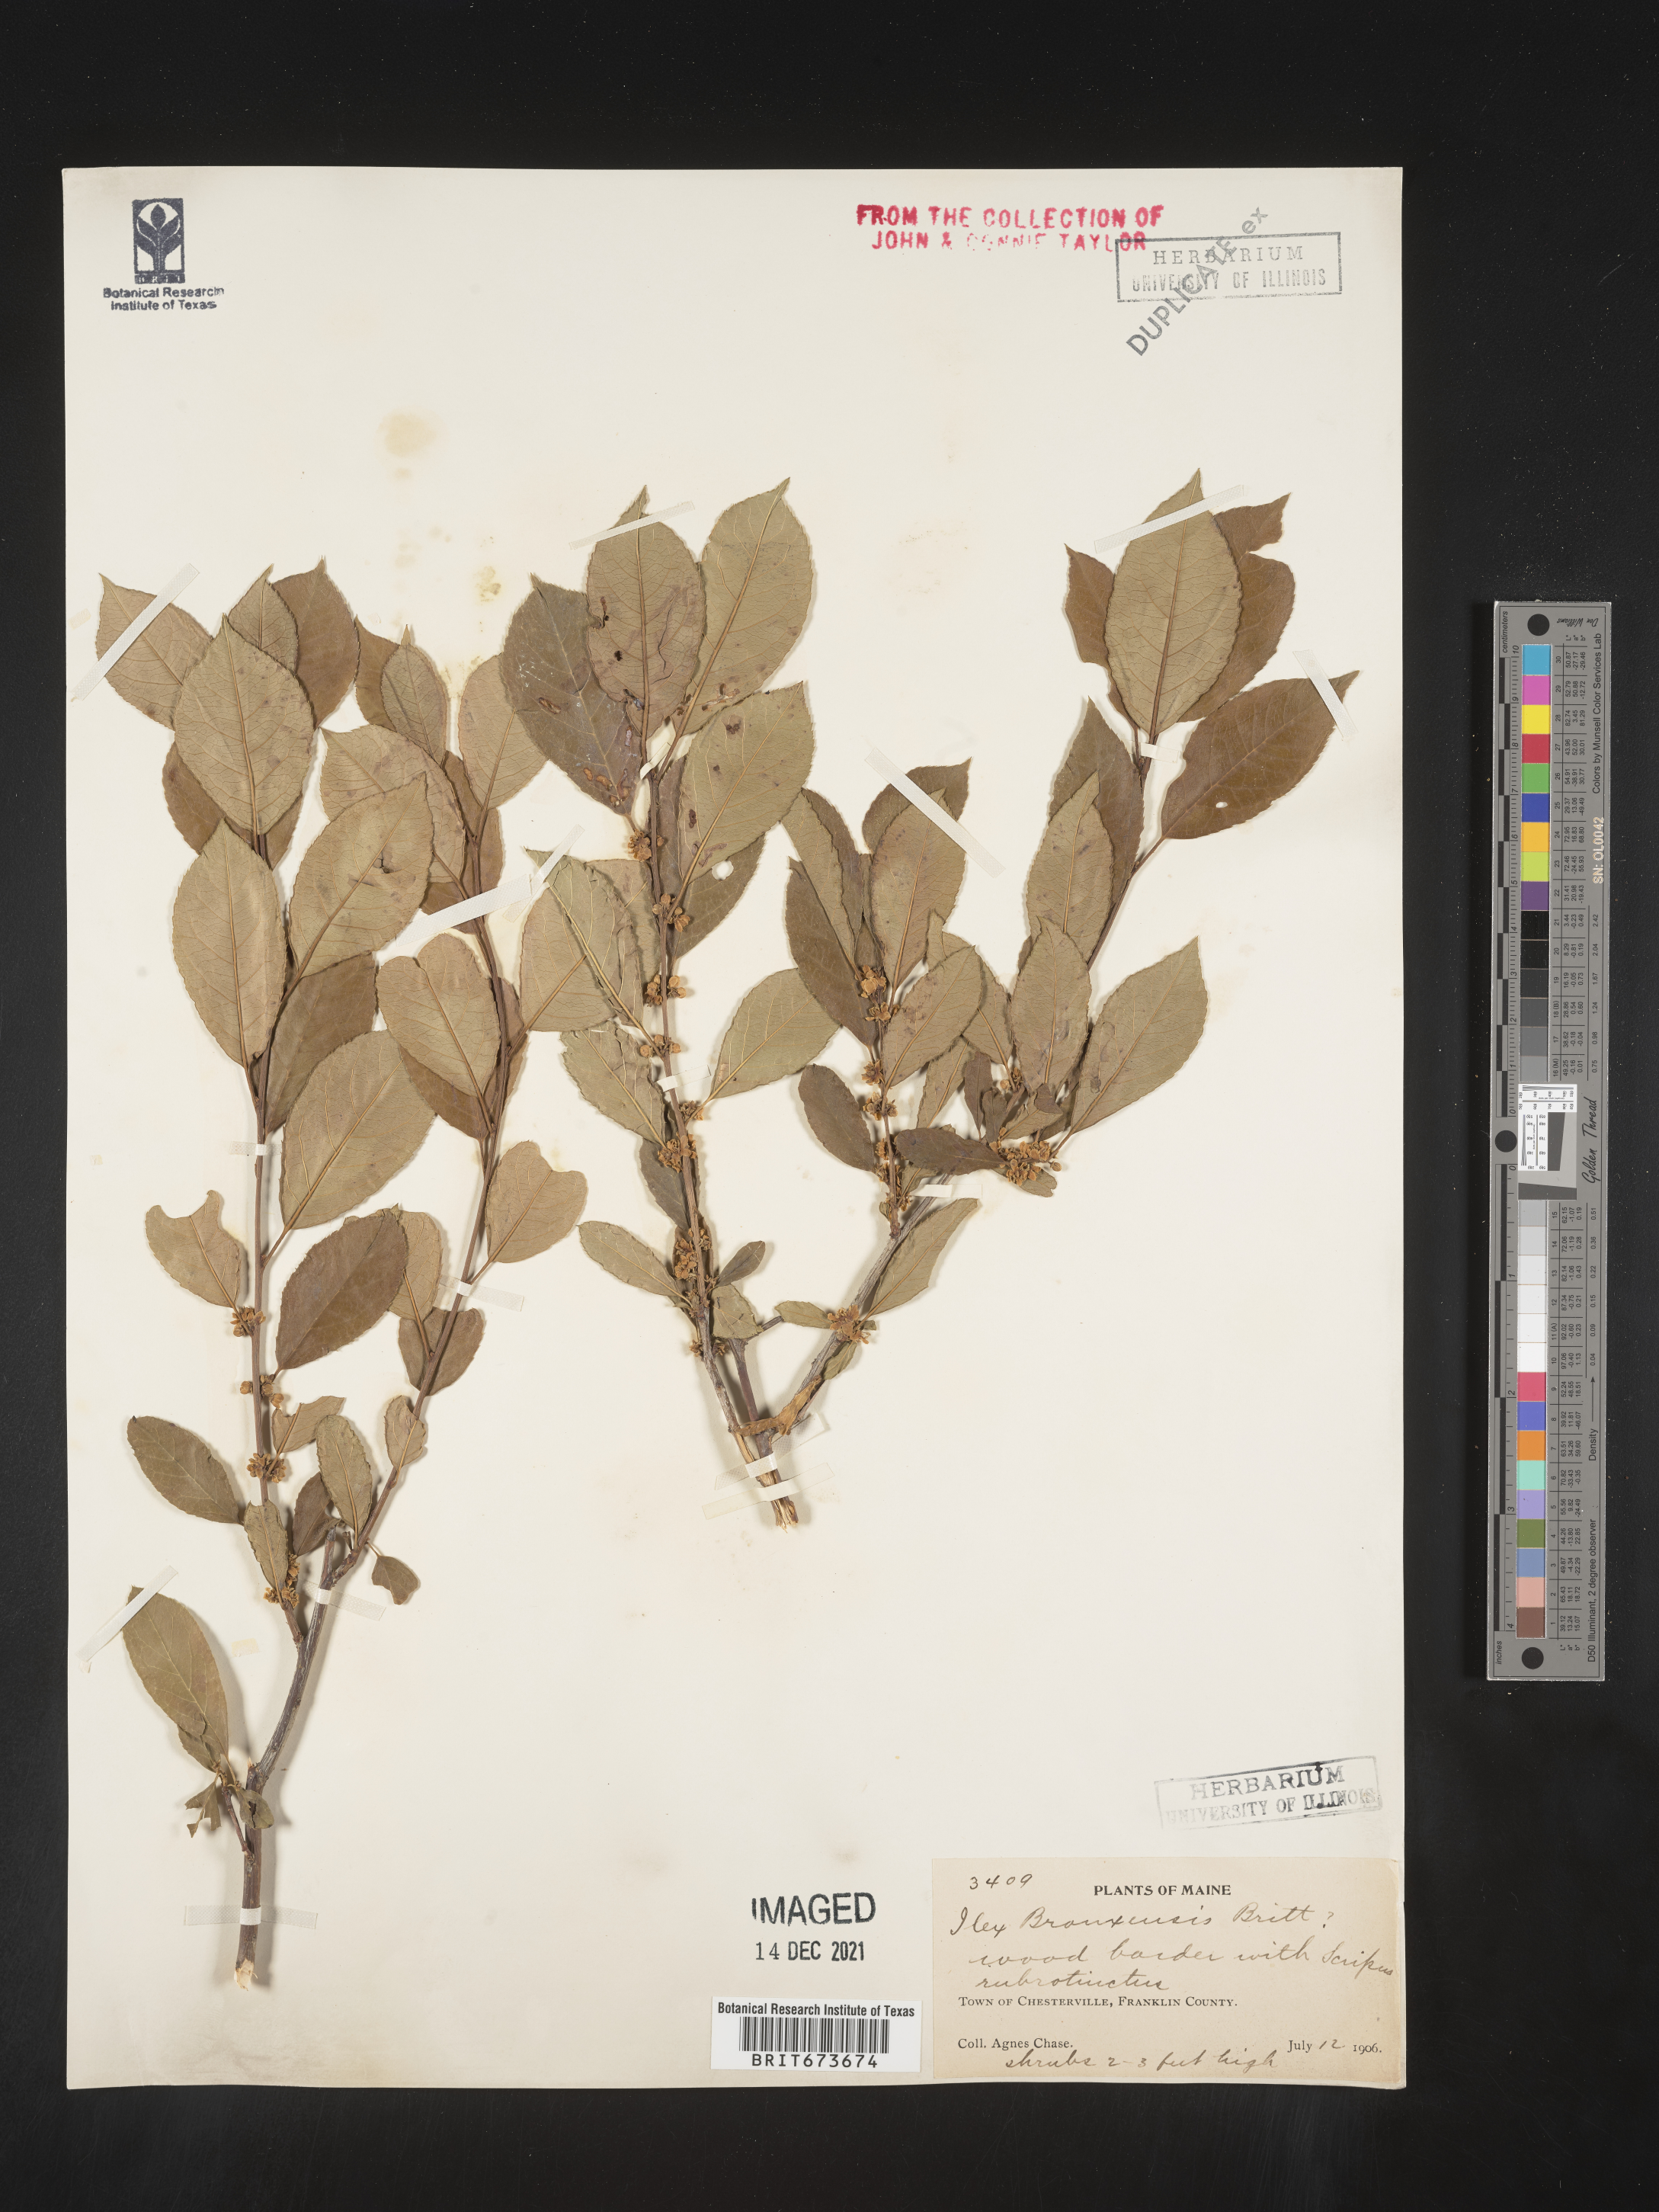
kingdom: Plantae
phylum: Tracheophyta
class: Magnoliopsida
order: Aquifoliales
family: Aquifoliaceae
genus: Ilex
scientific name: Ilex
